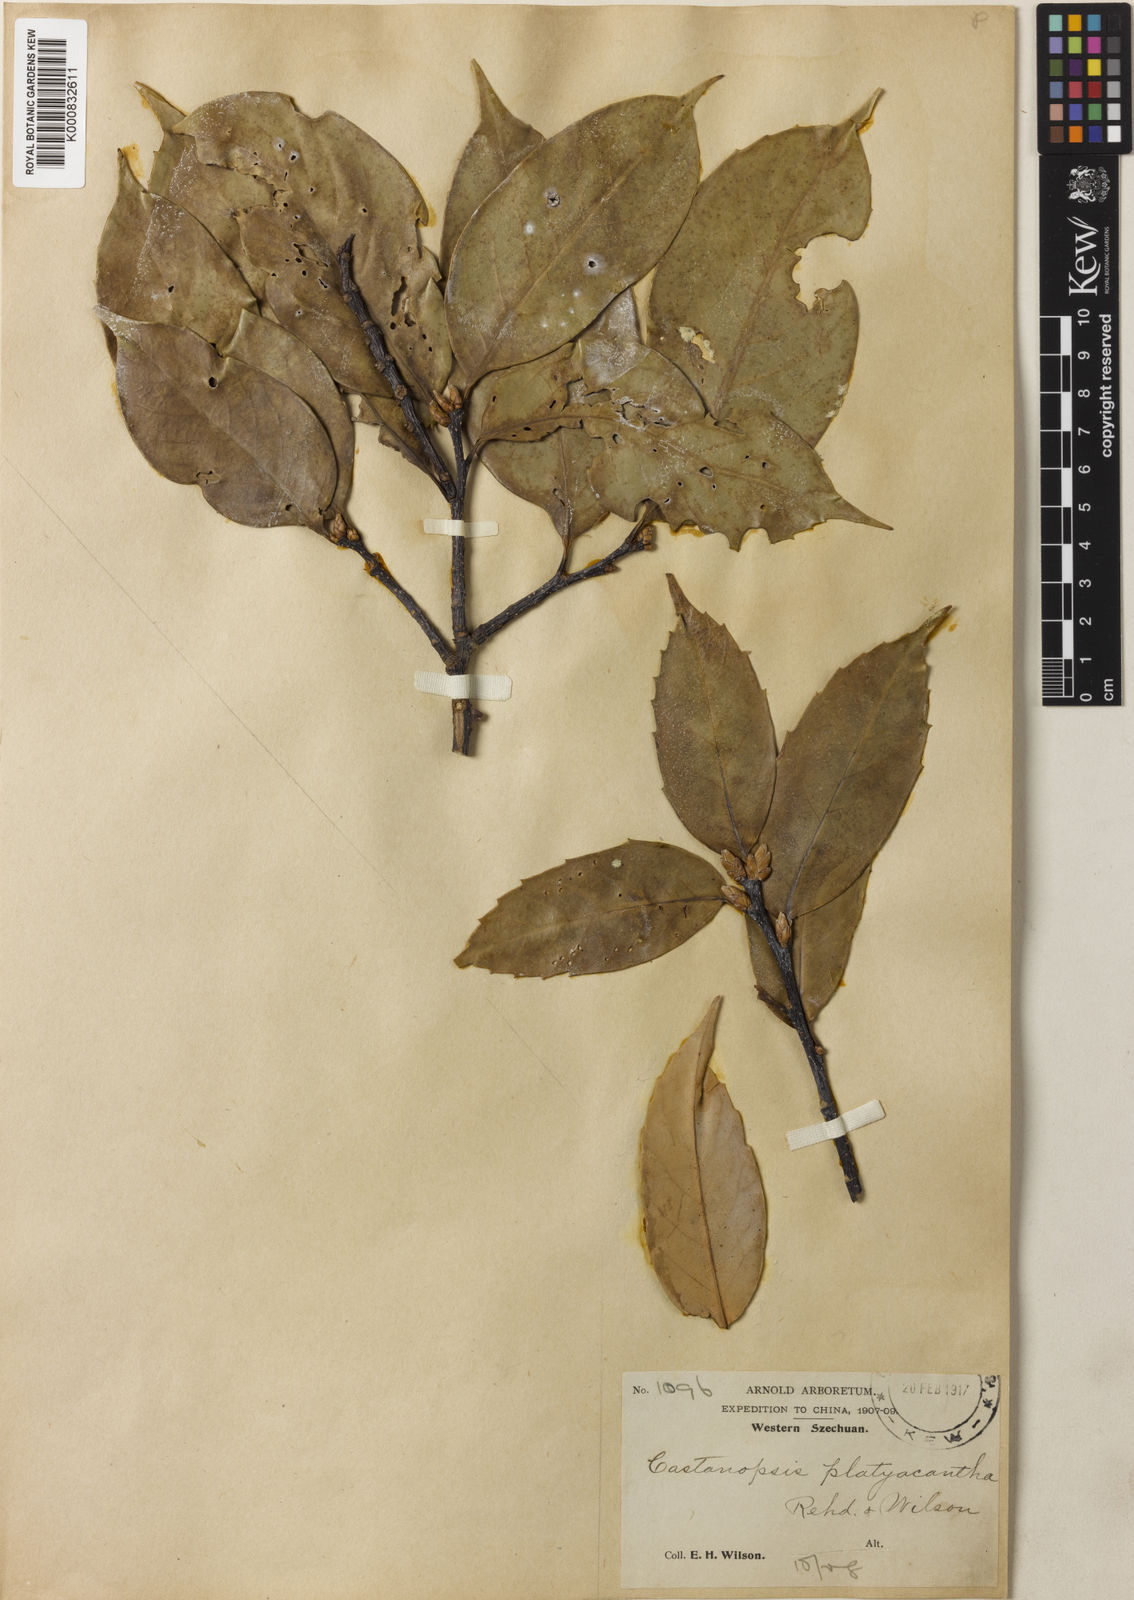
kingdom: Plantae
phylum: Tracheophyta
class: Magnoliopsida
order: Fagales
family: Fagaceae
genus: Castanopsis
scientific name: Castanopsis platyacantha
